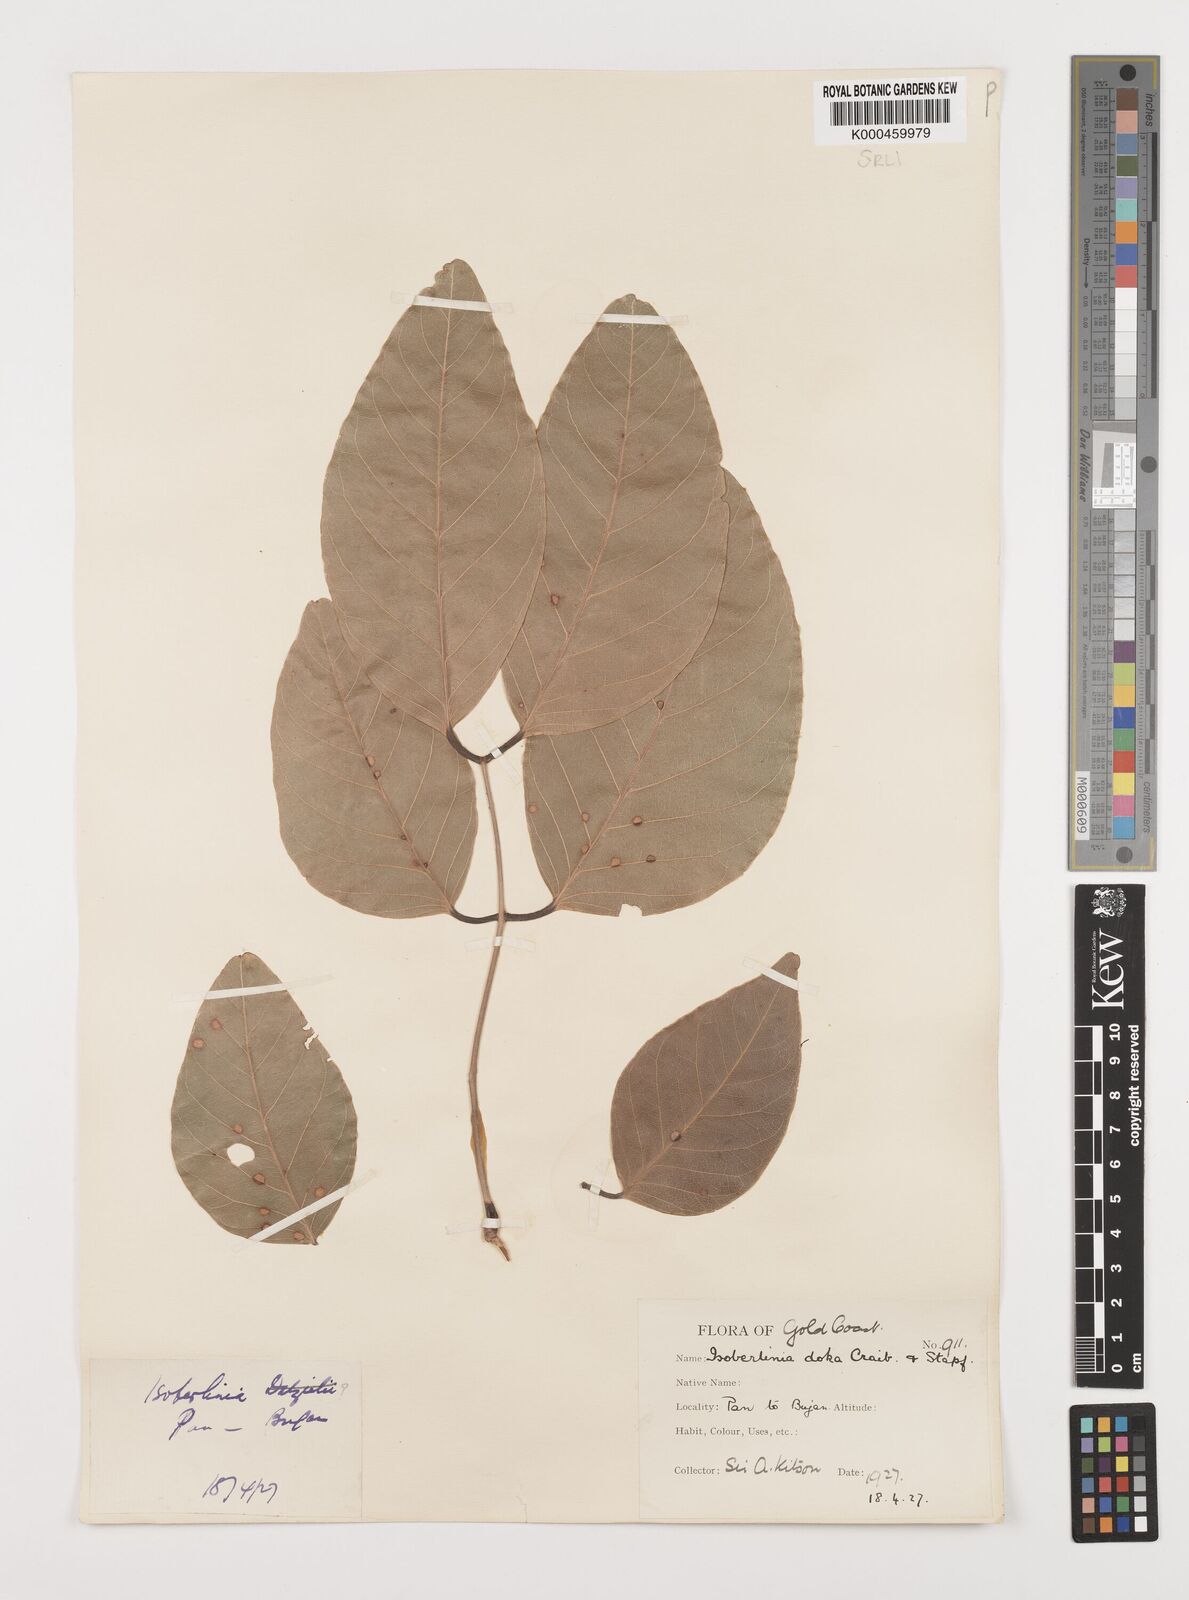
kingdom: Plantae
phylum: Tracheophyta
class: Magnoliopsida
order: Fabales
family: Fabaceae
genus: Isoberlinia
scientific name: Isoberlinia doka
